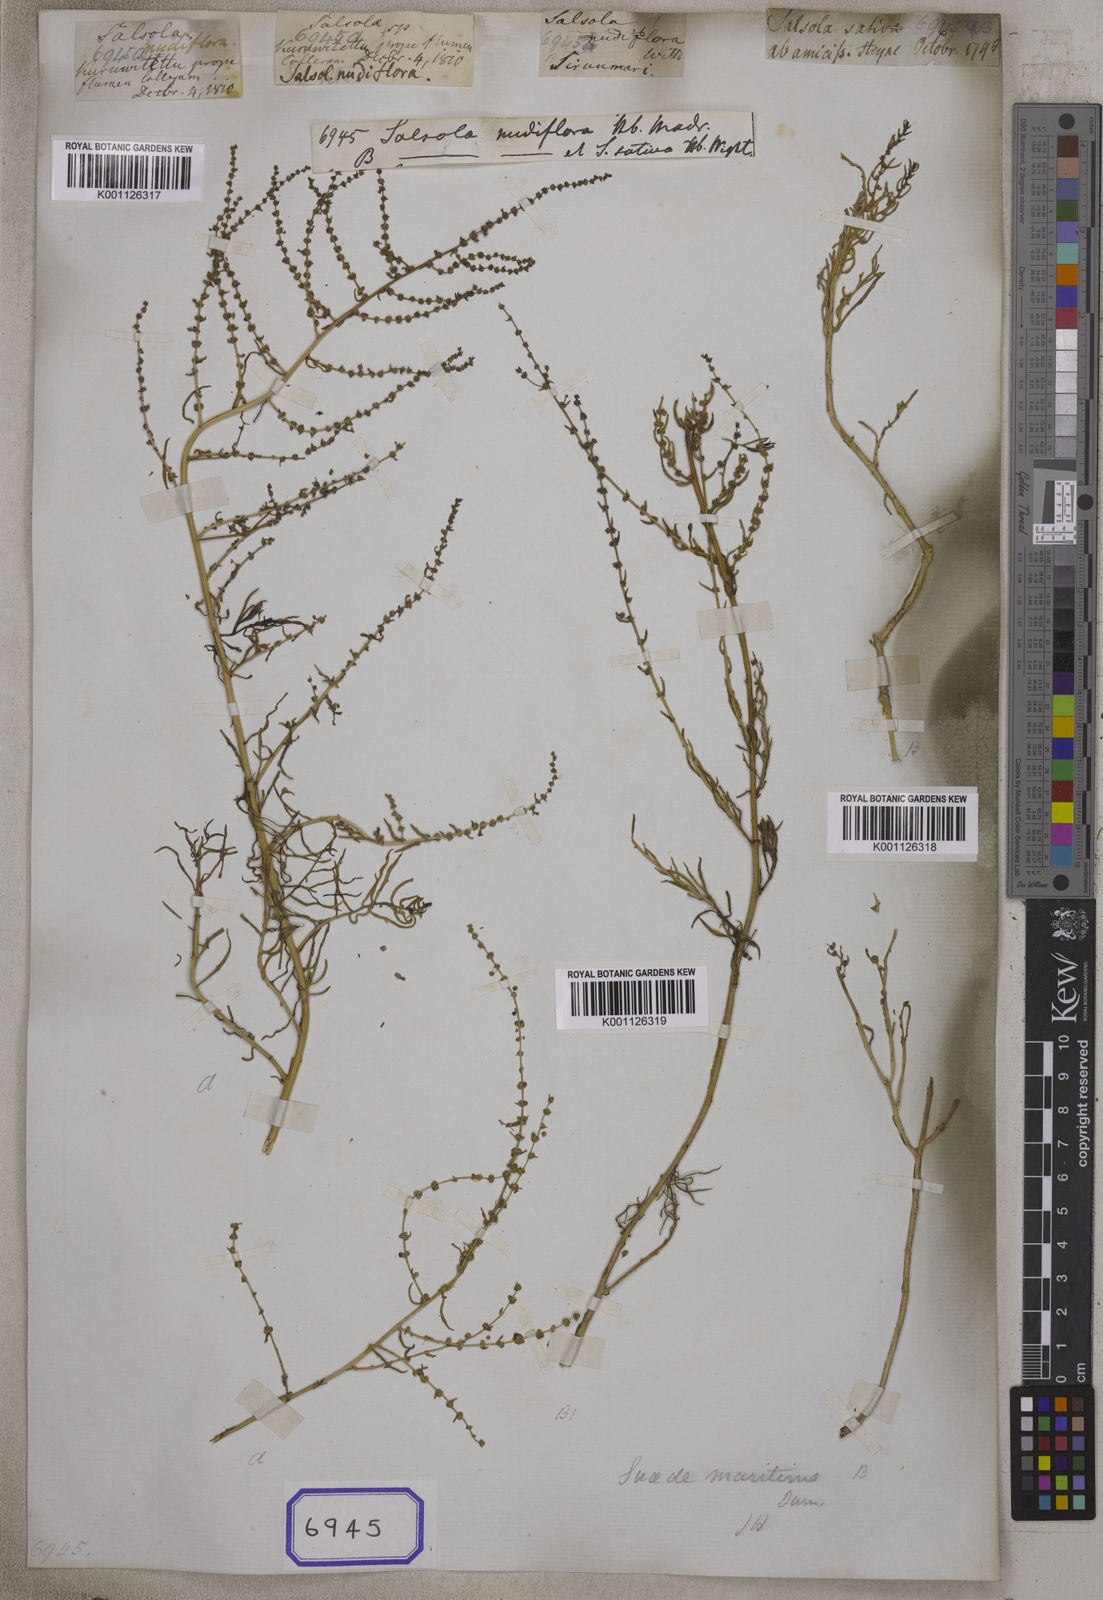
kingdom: Plantae
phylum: Tracheophyta
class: Magnoliopsida
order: Caryophyllales
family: Amaranthaceae
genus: Salsola
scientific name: Salsola
